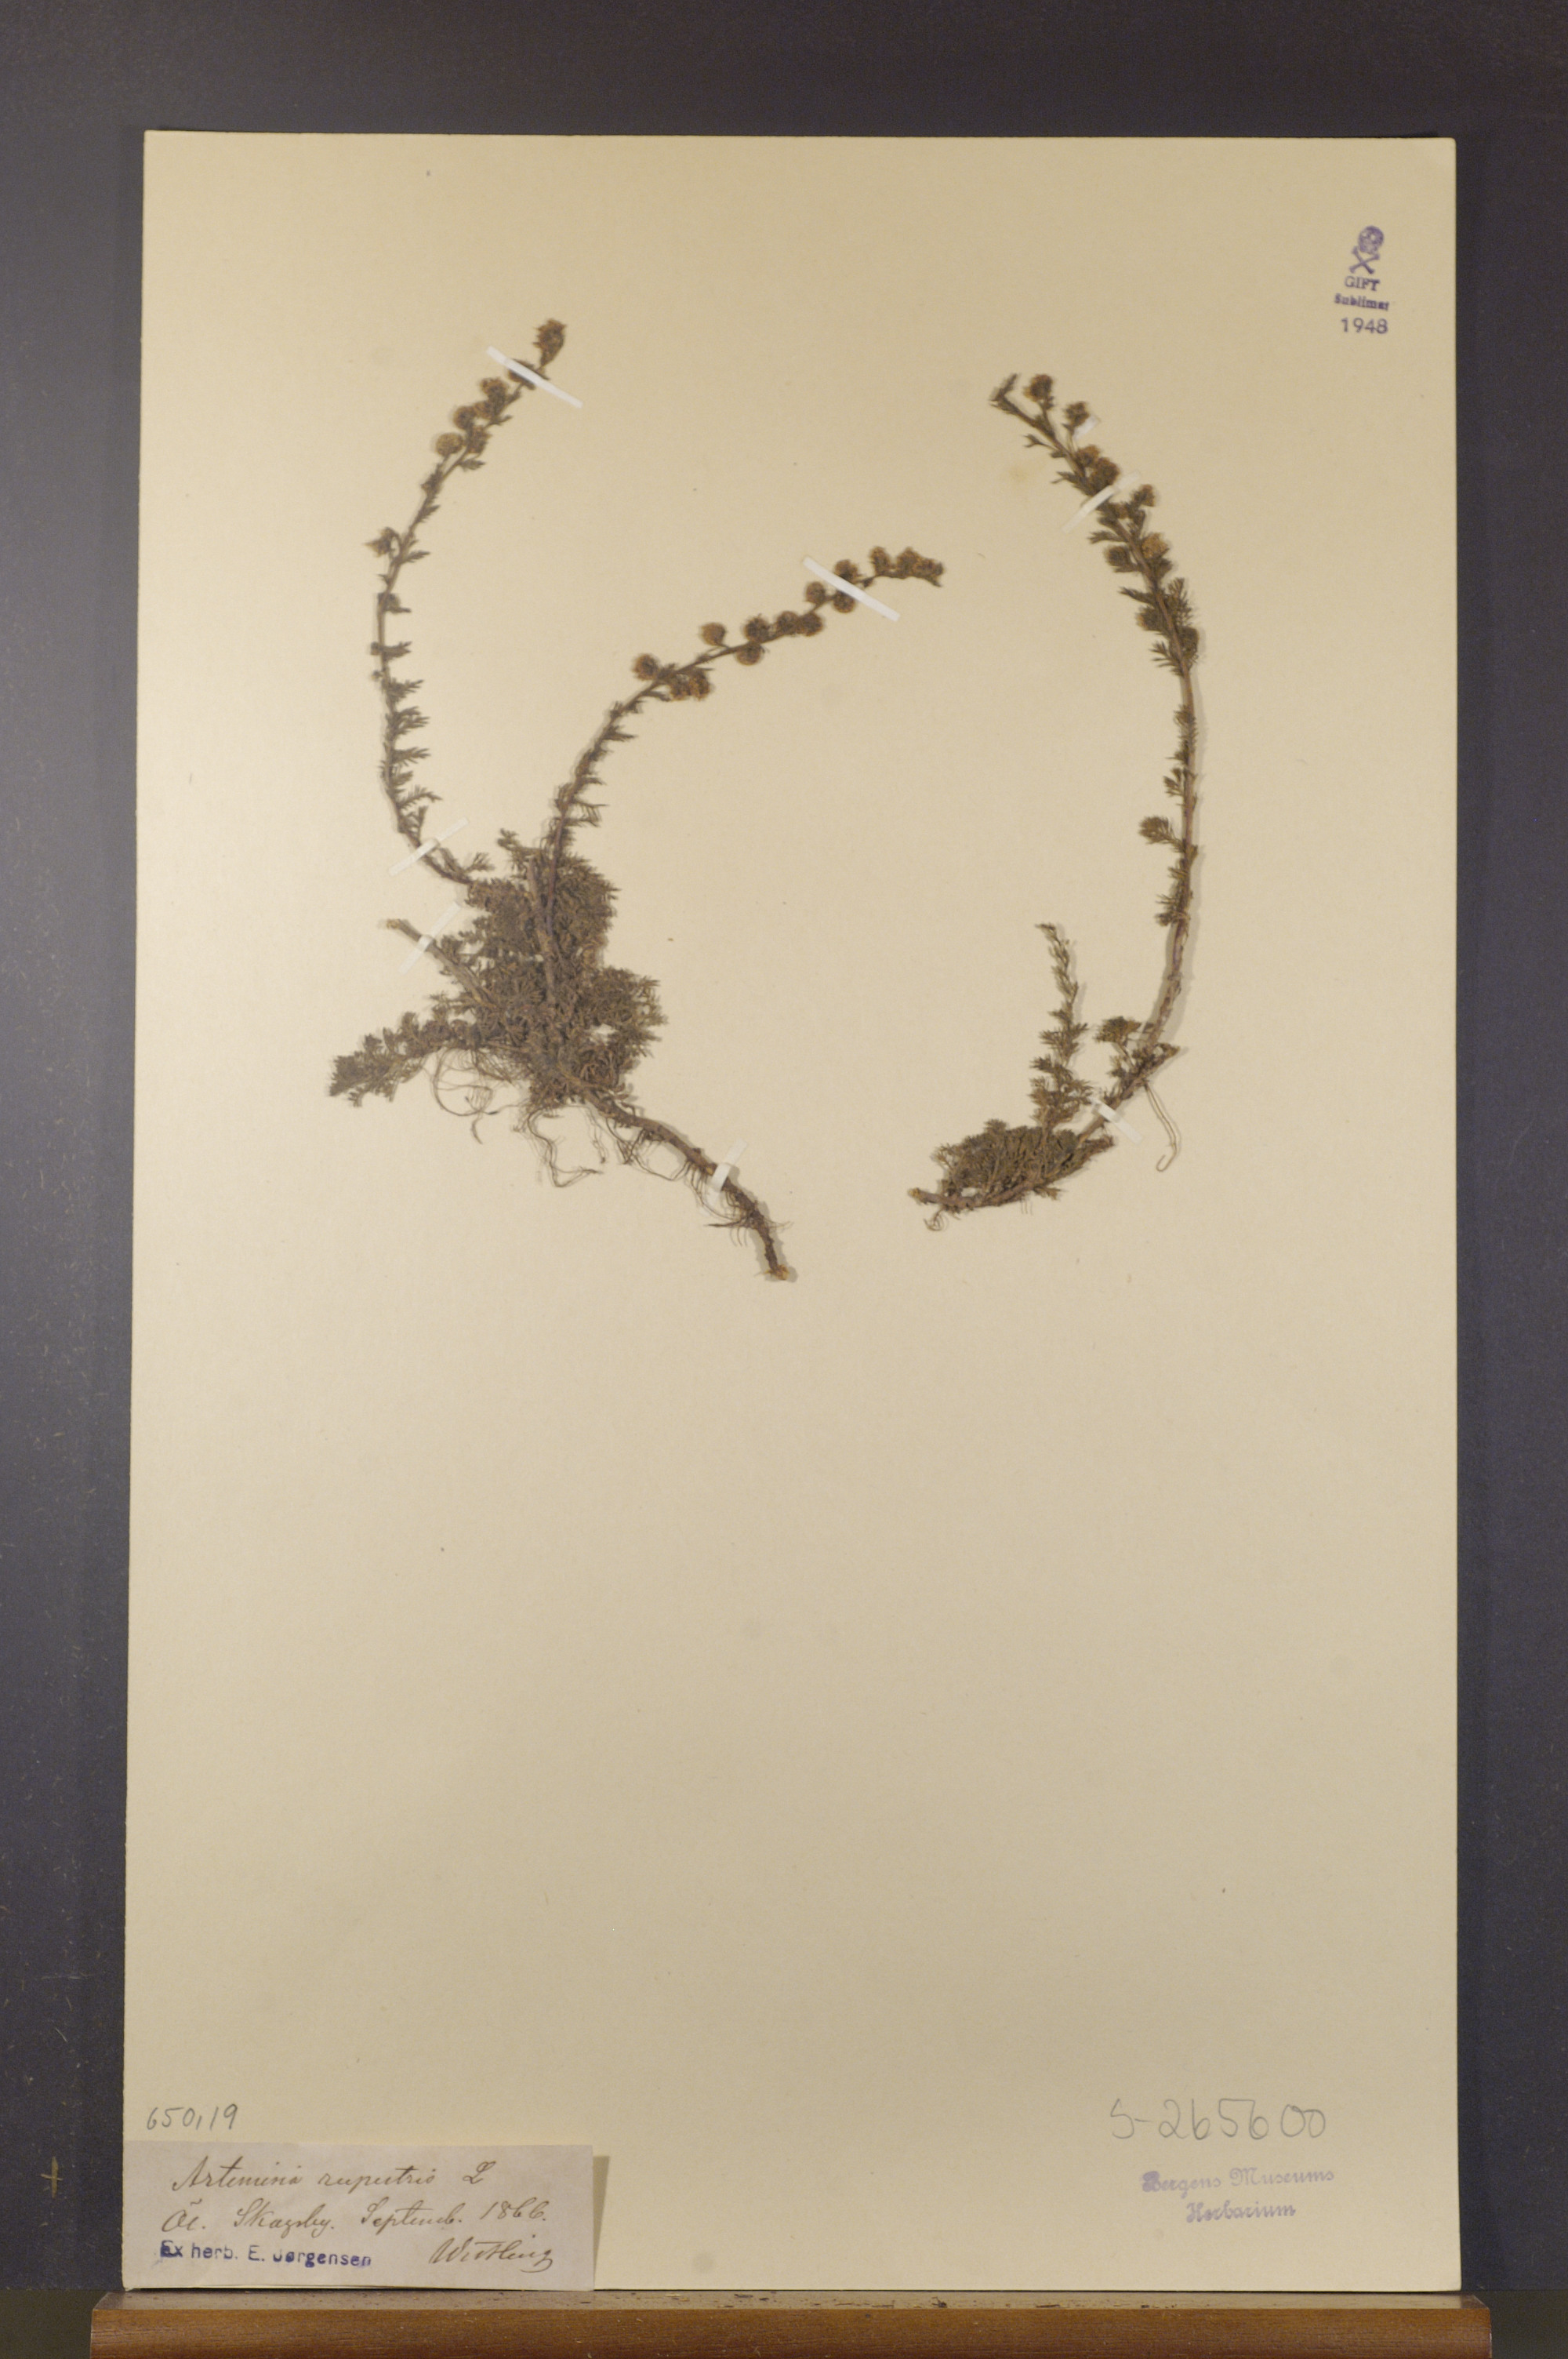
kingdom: Plantae
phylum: Tracheophyta
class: Magnoliopsida
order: Asterales
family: Asteraceae
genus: Artemisia
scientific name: Artemisia rupestris
